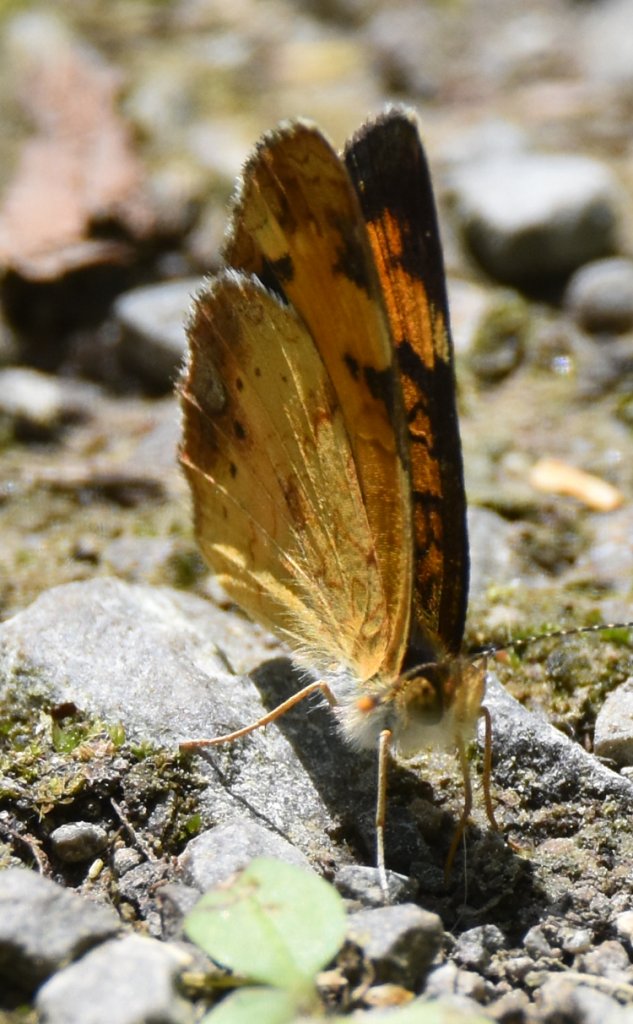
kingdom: Animalia
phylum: Arthropoda
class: Insecta
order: Lepidoptera
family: Nymphalidae
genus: Phyciodes
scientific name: Phyciodes tharos
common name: Northern Crescent
